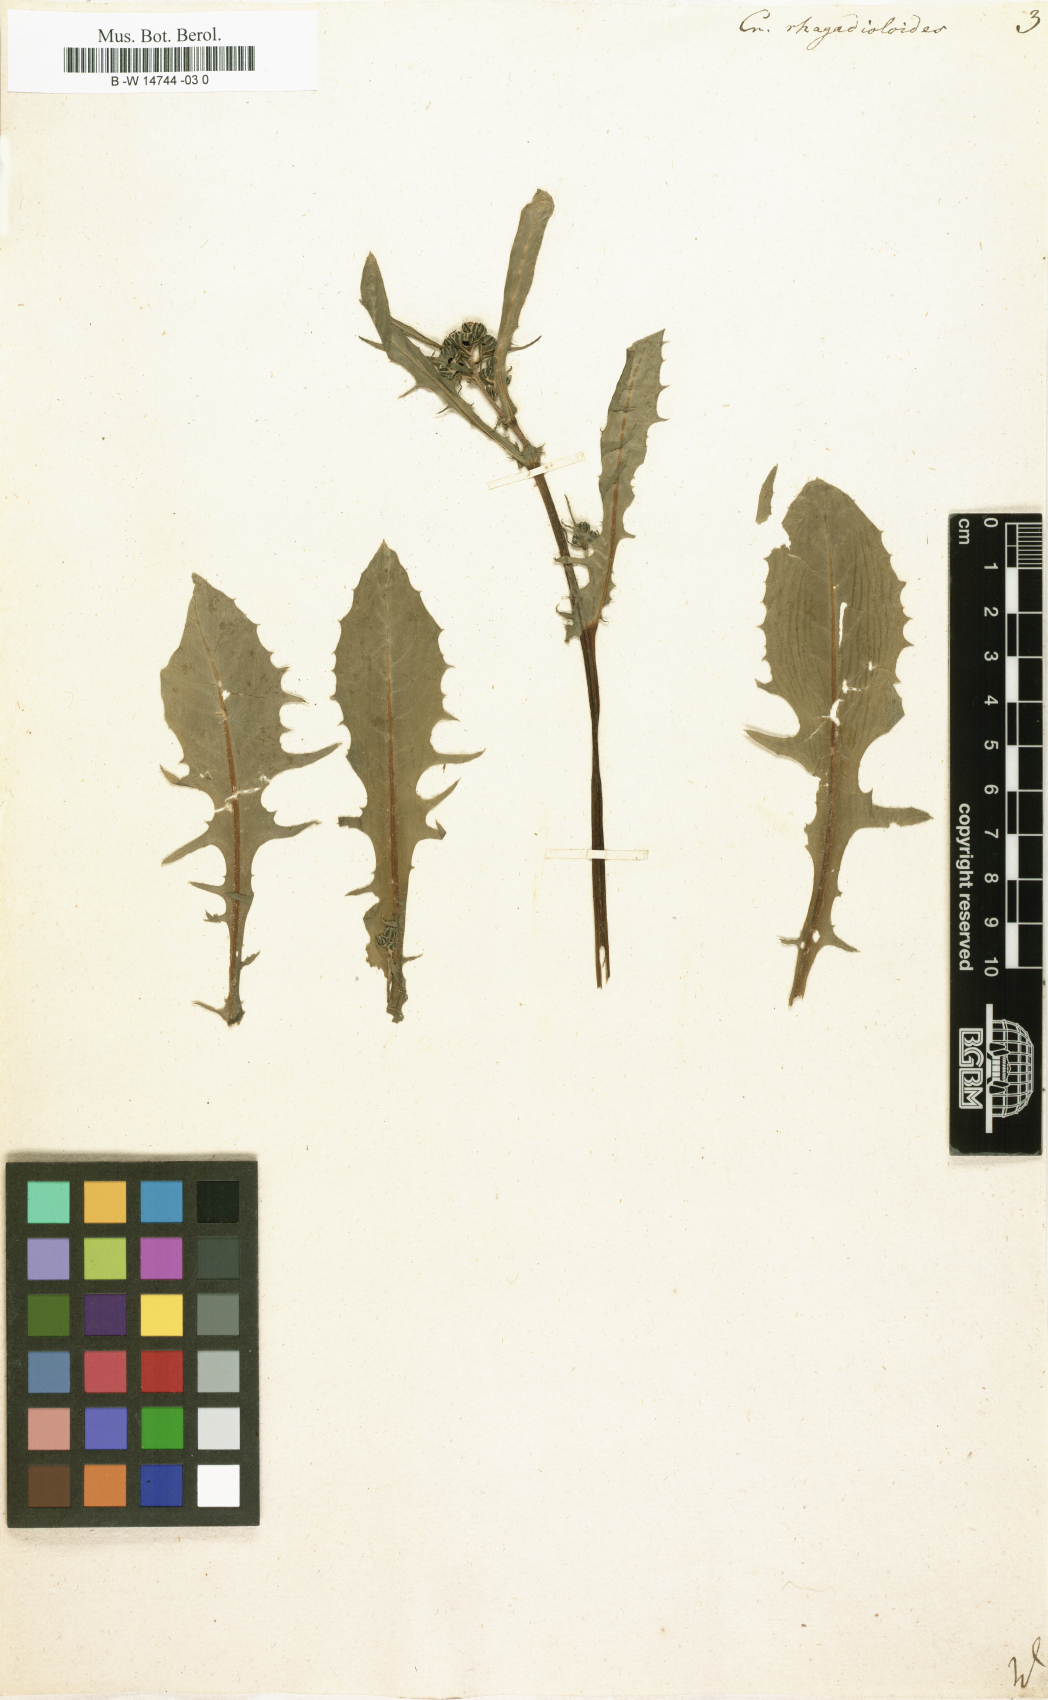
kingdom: Plantae
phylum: Tracheophyta
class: Magnoliopsida
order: Asterales
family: Asteraceae
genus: Picris
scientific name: Picris rhagadioloides
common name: Oxtongue
